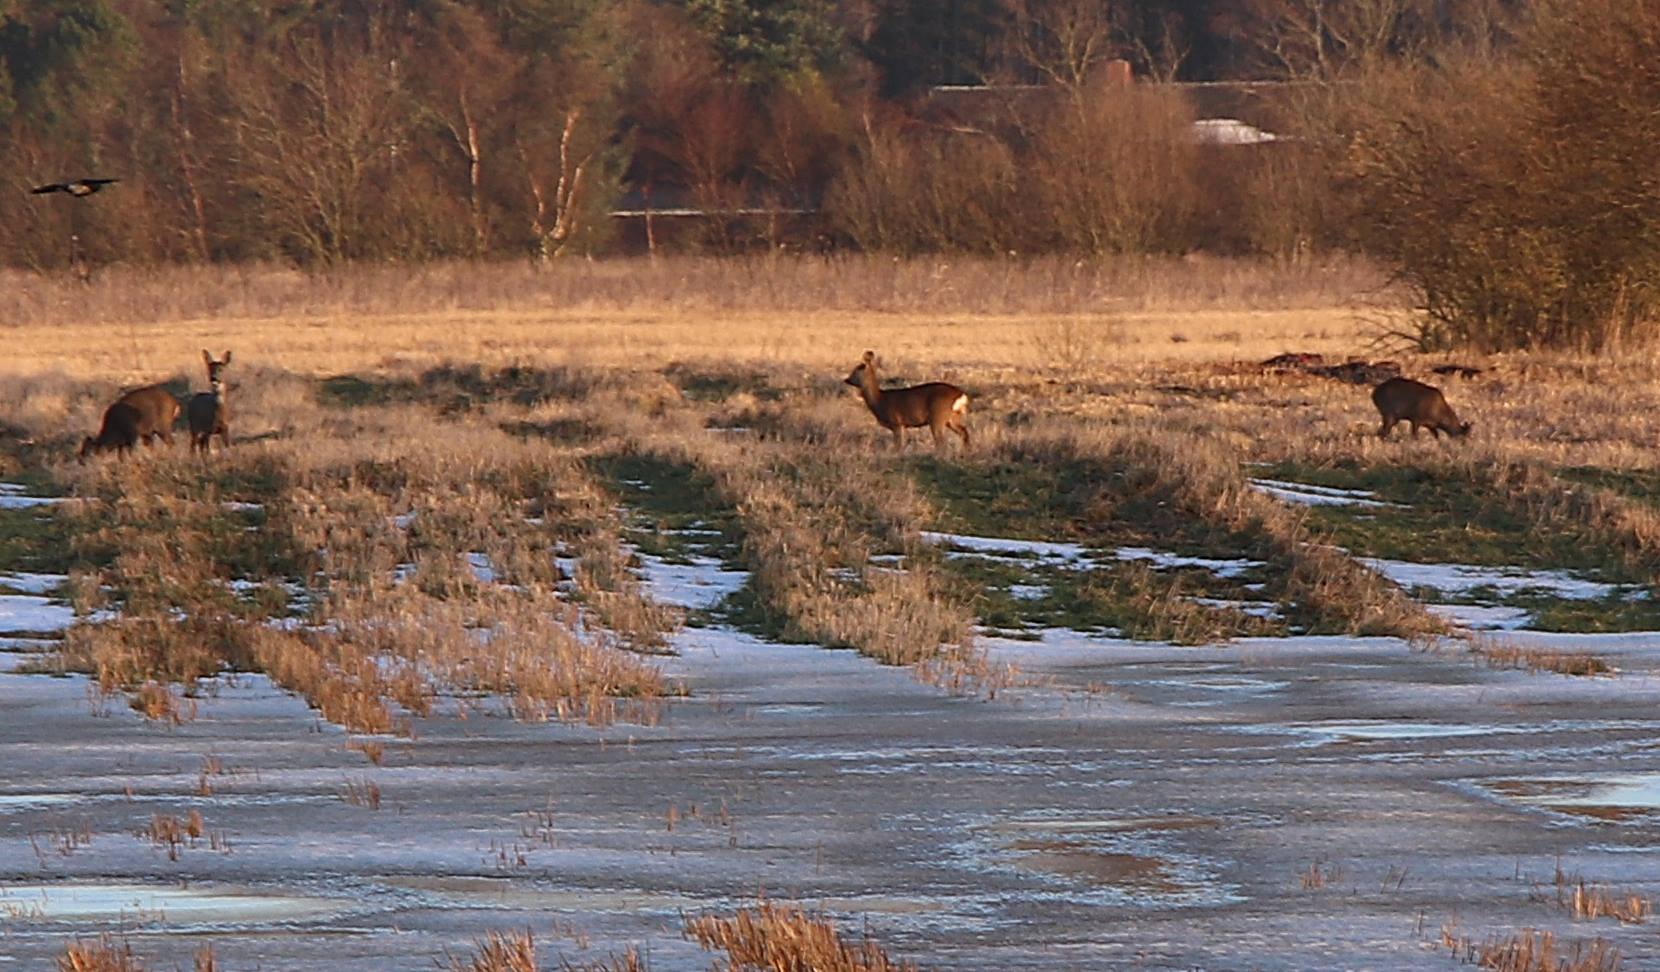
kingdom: Animalia
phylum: Chordata
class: Mammalia
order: Artiodactyla
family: Cervidae
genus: Capreolus
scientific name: Capreolus capreolus
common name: Rådyr
